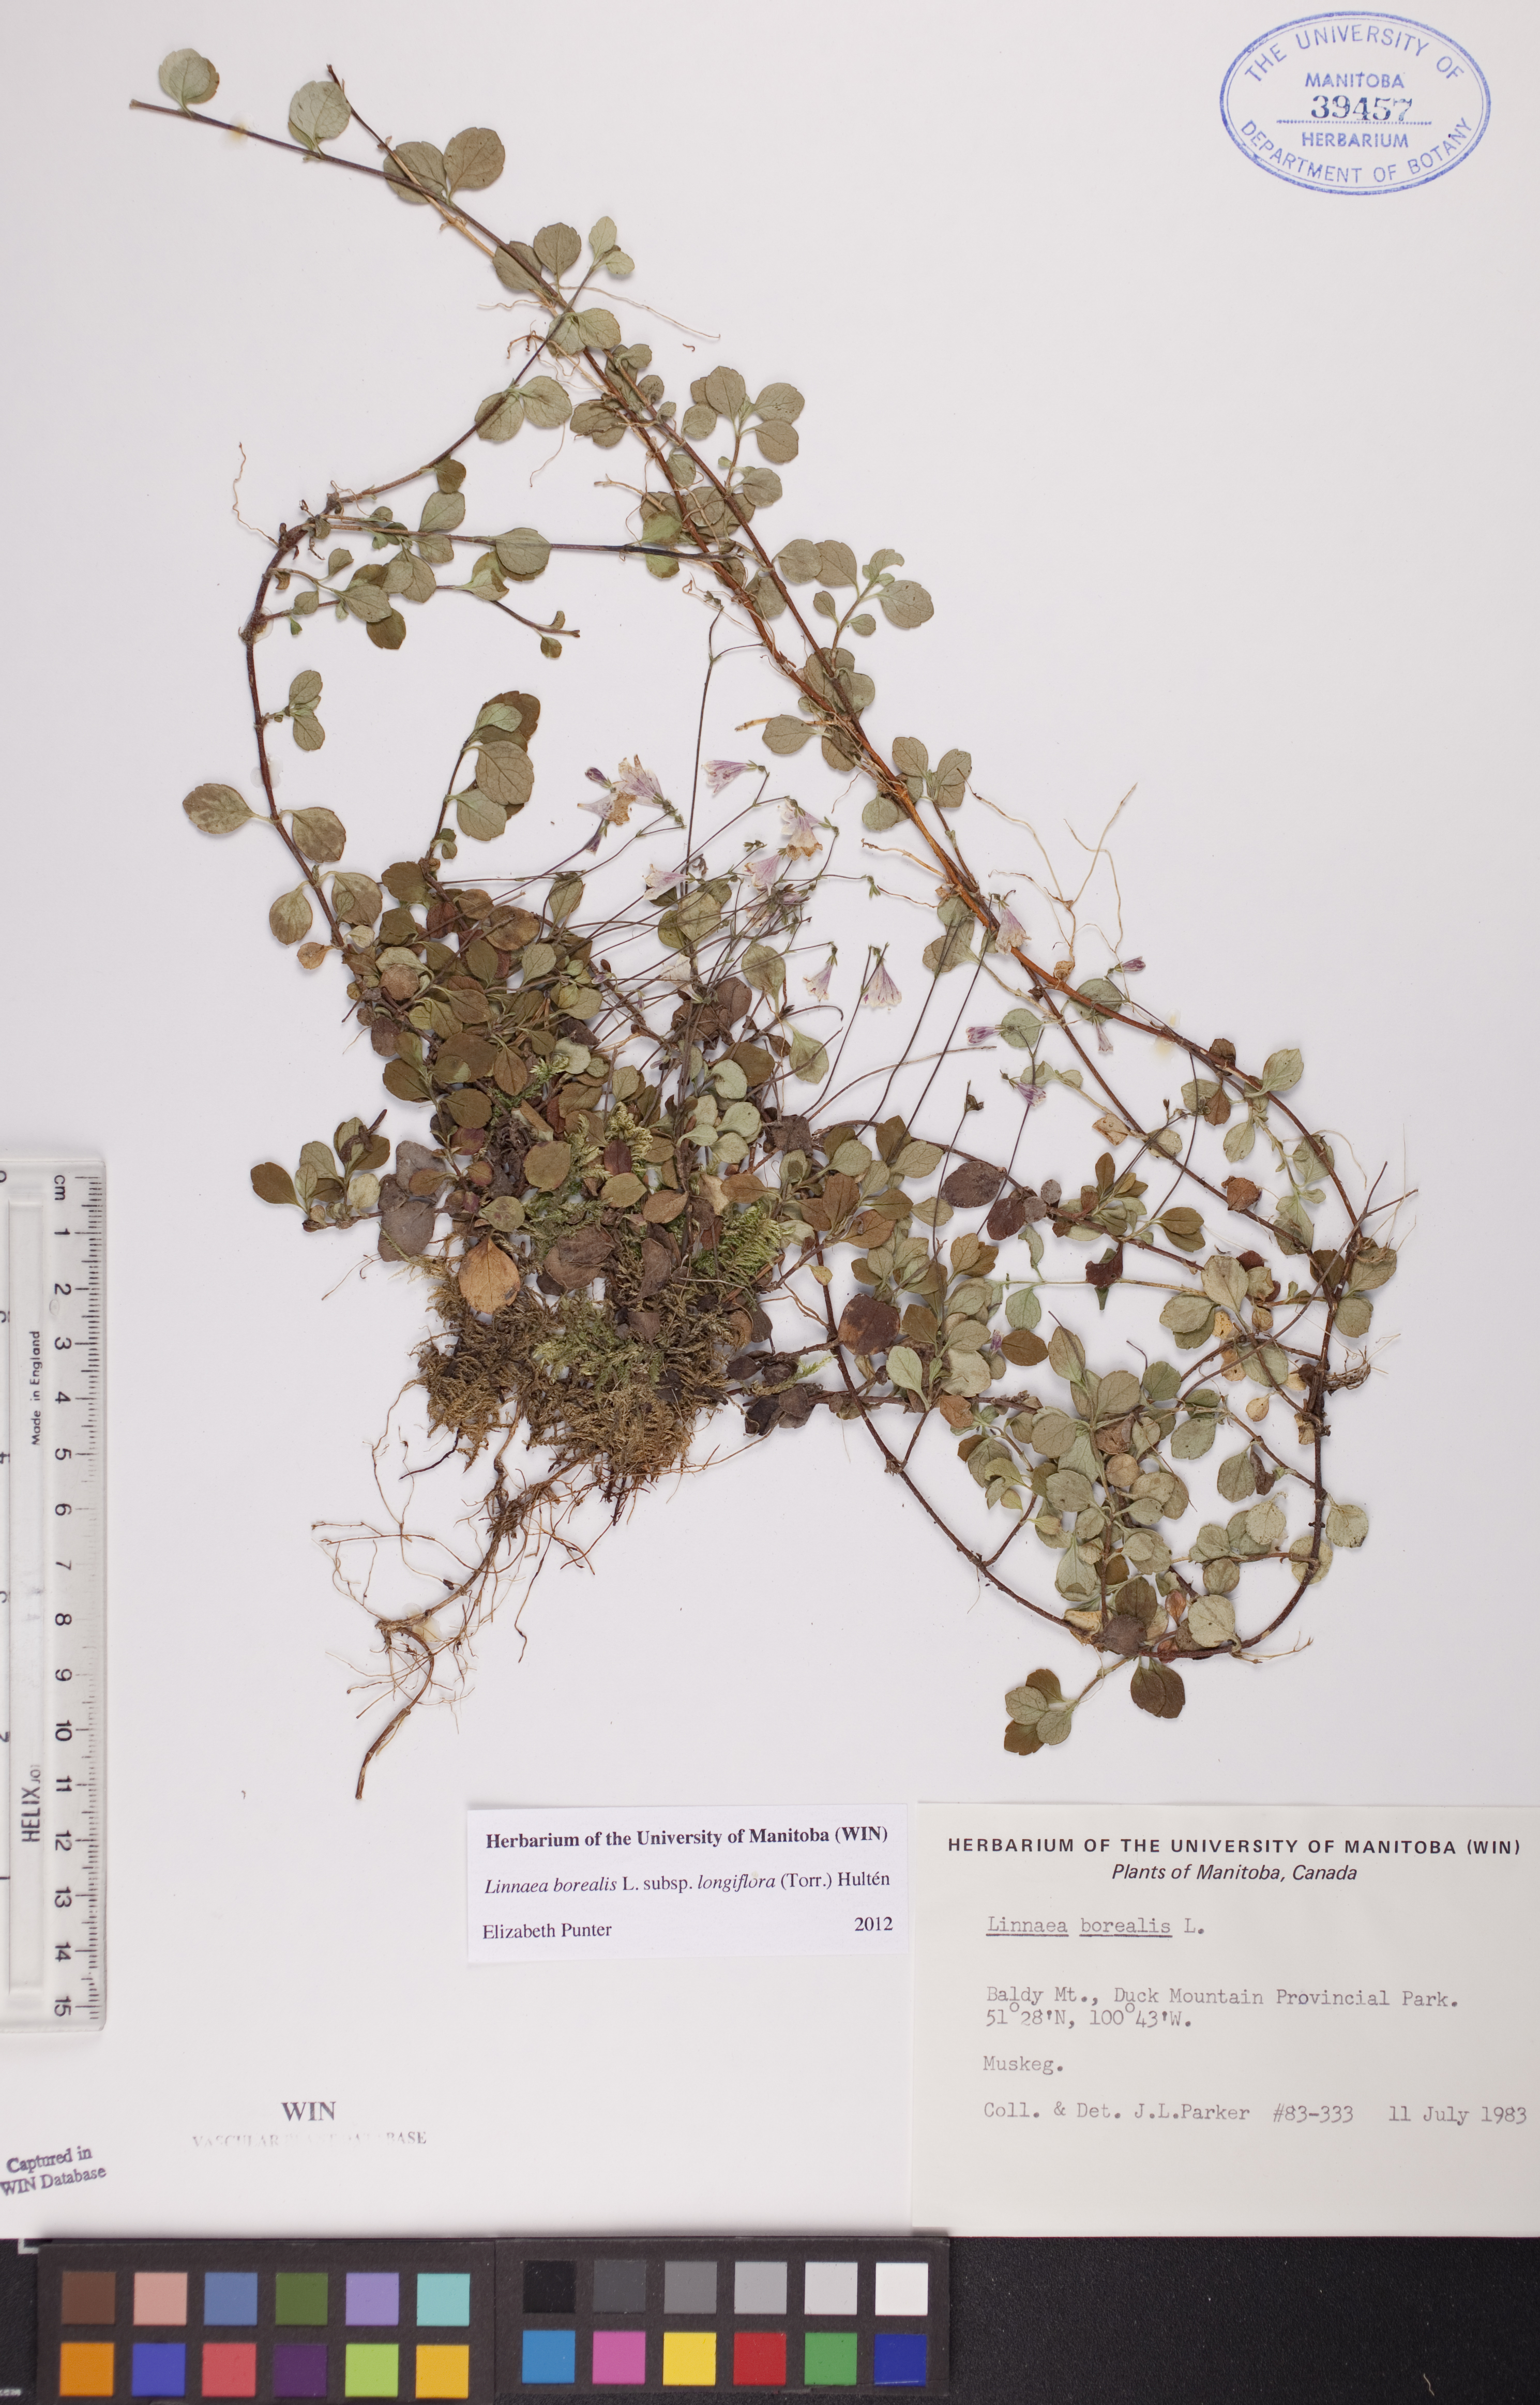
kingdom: Plantae
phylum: Tracheophyta
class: Magnoliopsida
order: Dipsacales
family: Caprifoliaceae
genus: Linnaea
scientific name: Linnaea borealis
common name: Twinflower
